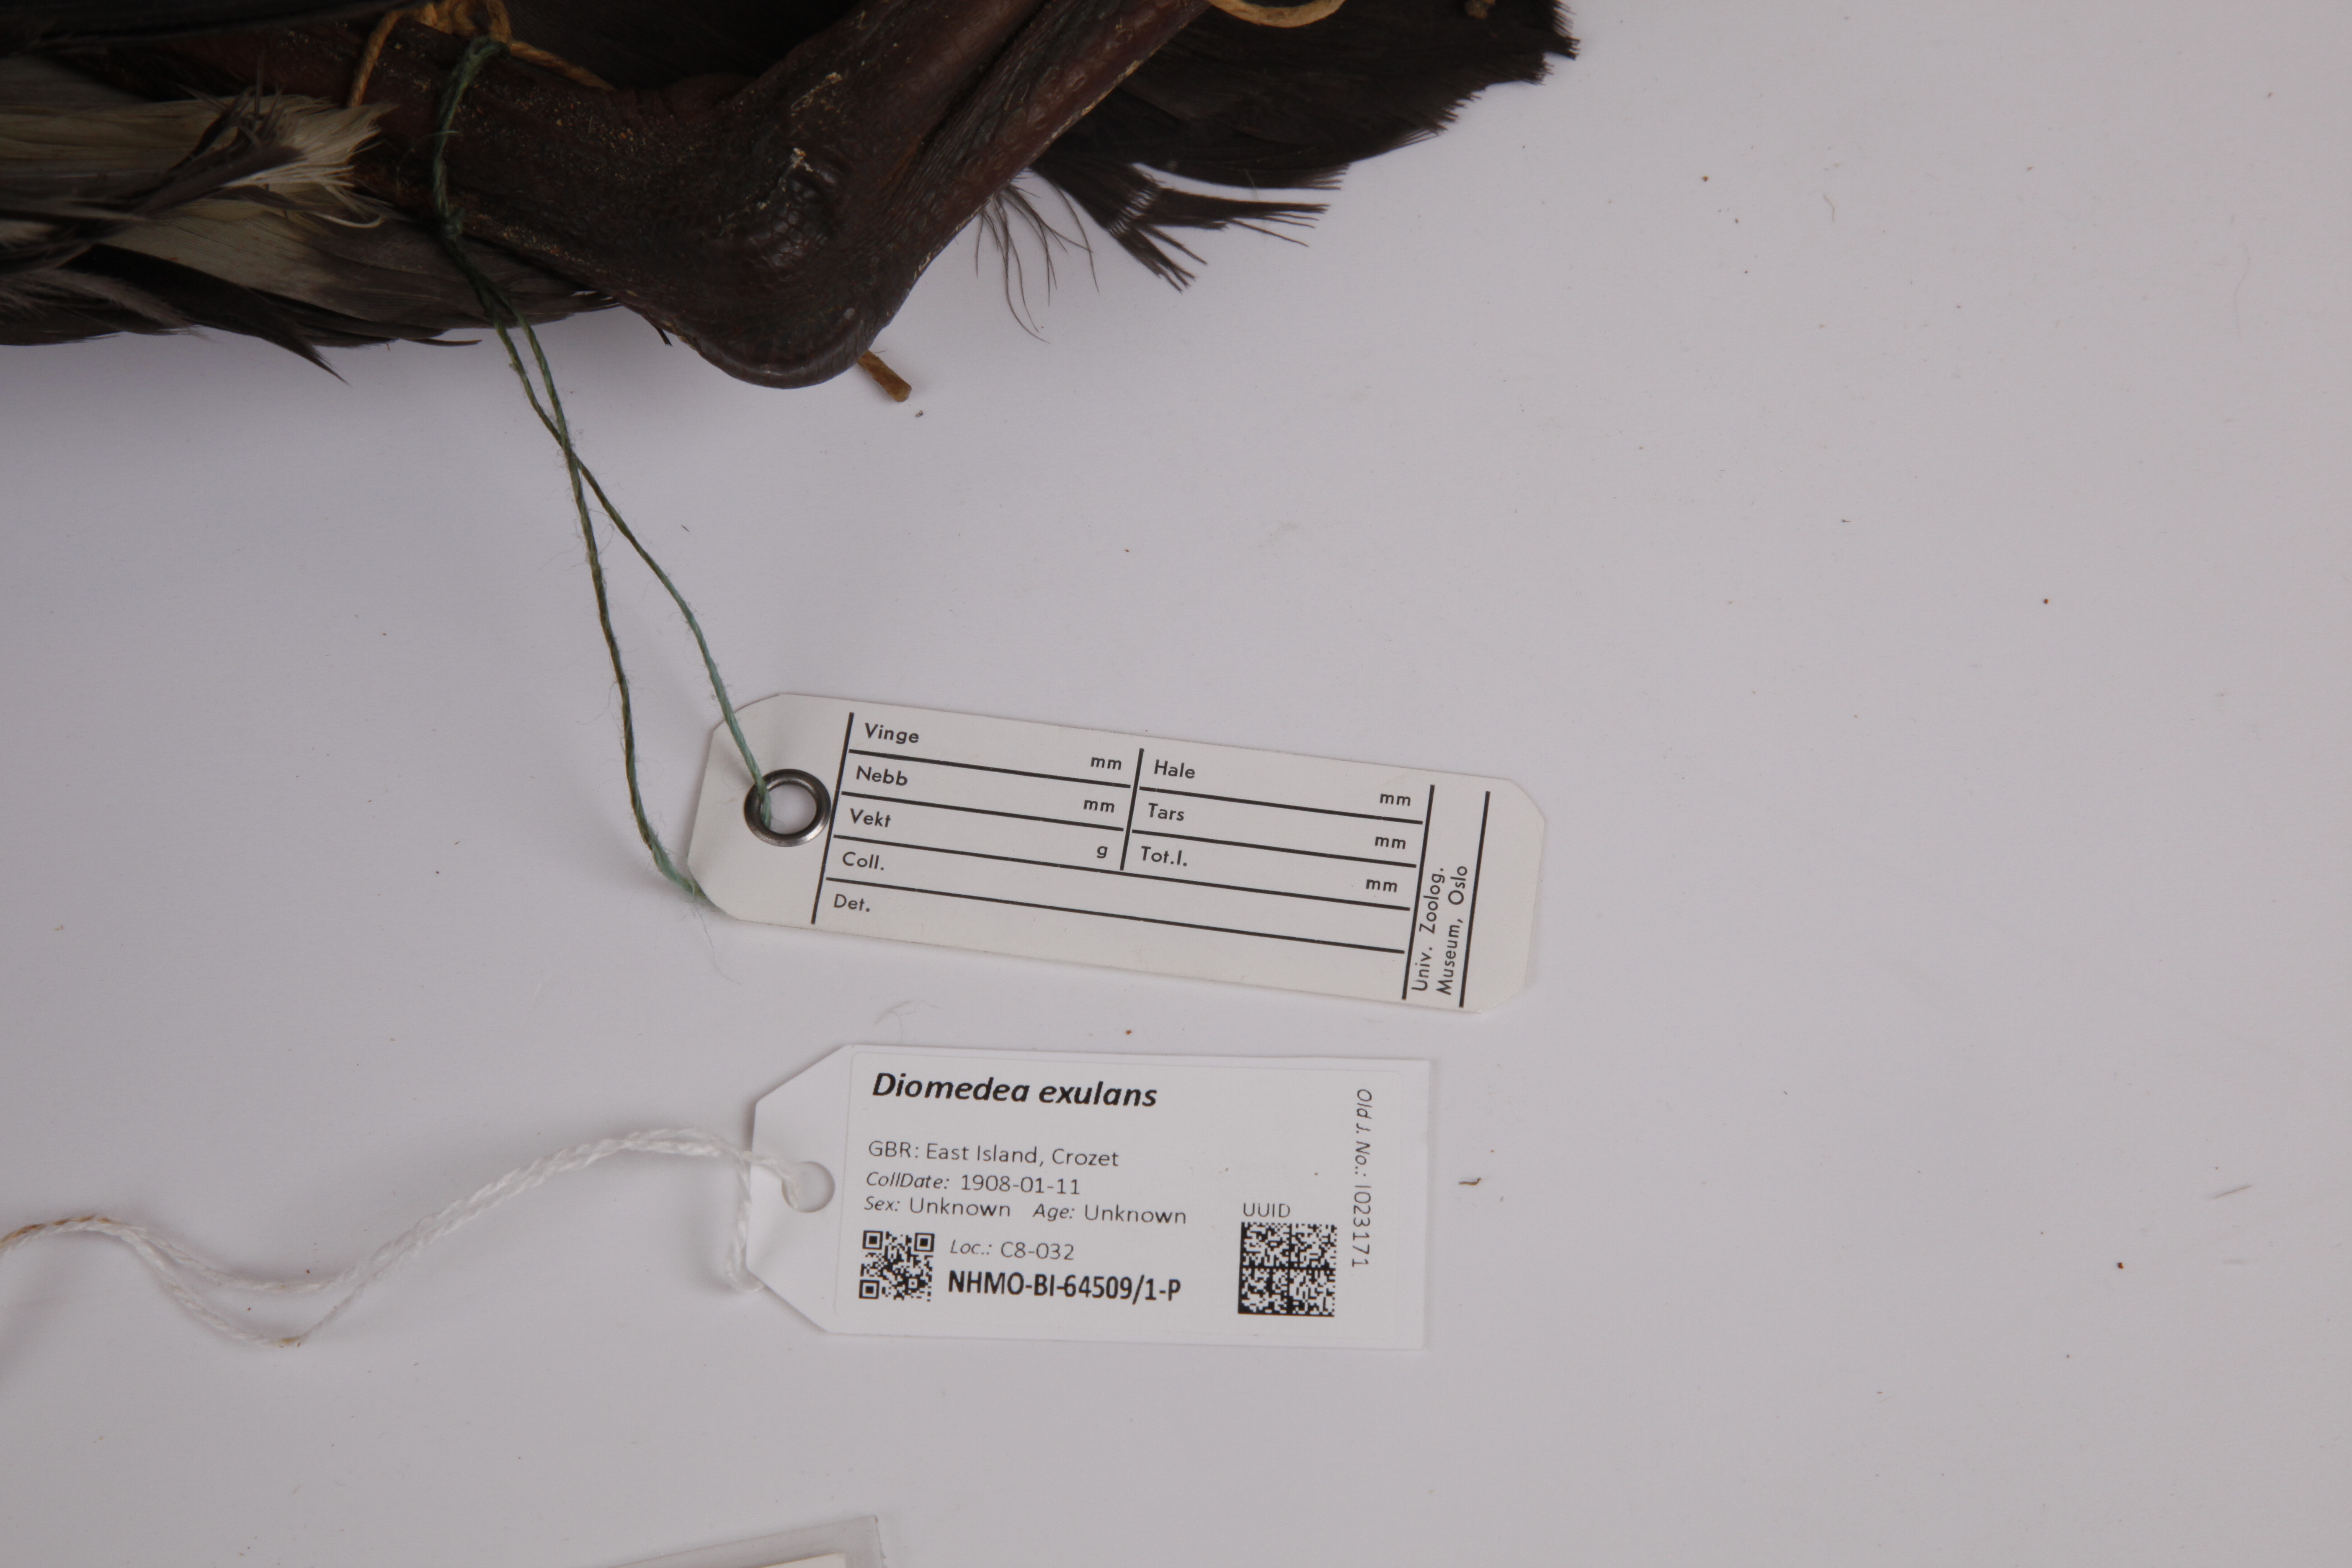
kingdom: Animalia
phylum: Chordata
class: Aves
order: Procellariiformes
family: Diomedeidae
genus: Diomedea
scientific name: Diomedea exulans
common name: Wandering albatross
